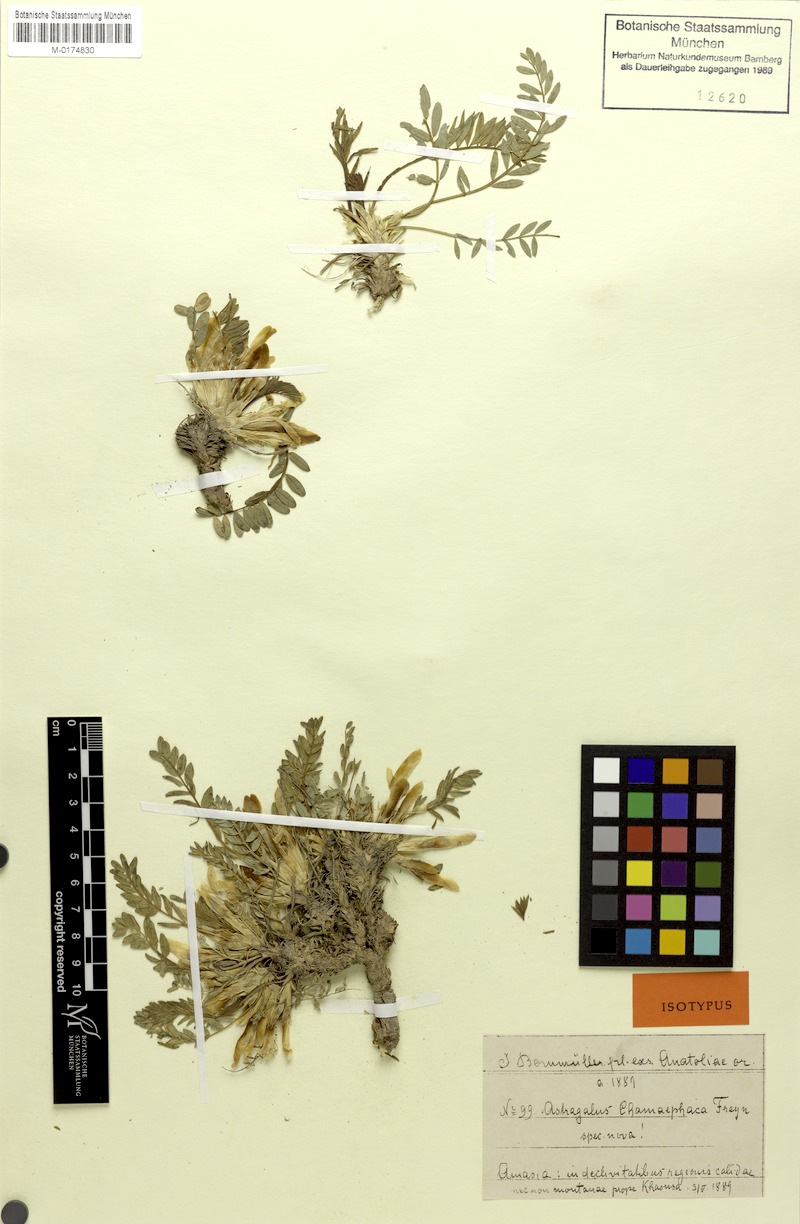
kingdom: Plantae
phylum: Tracheophyta
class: Magnoliopsida
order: Fabales
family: Fabaceae
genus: Astragalus
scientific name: Astragalus chamaephaca
